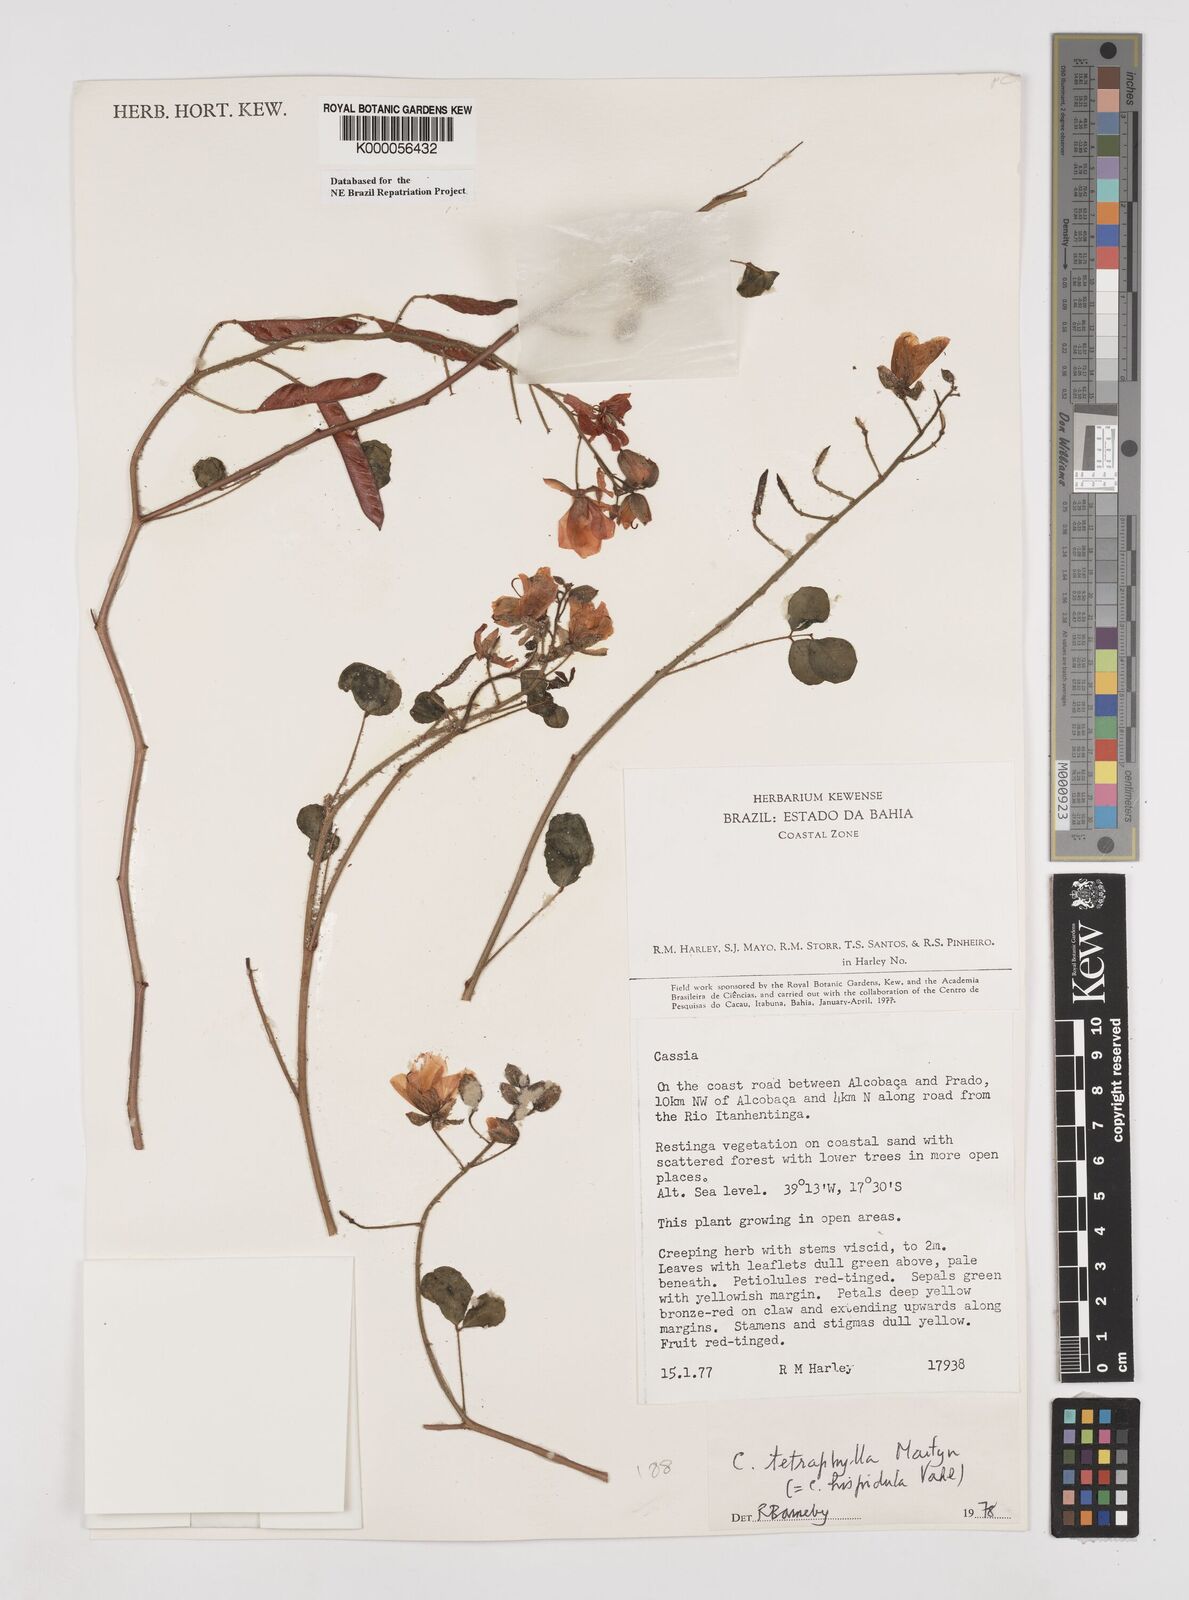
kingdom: Plantae
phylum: Tracheophyta
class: Magnoliopsida
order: Fabales
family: Fabaceae
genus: Chamaecrista
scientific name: Chamaecrista hispidula
